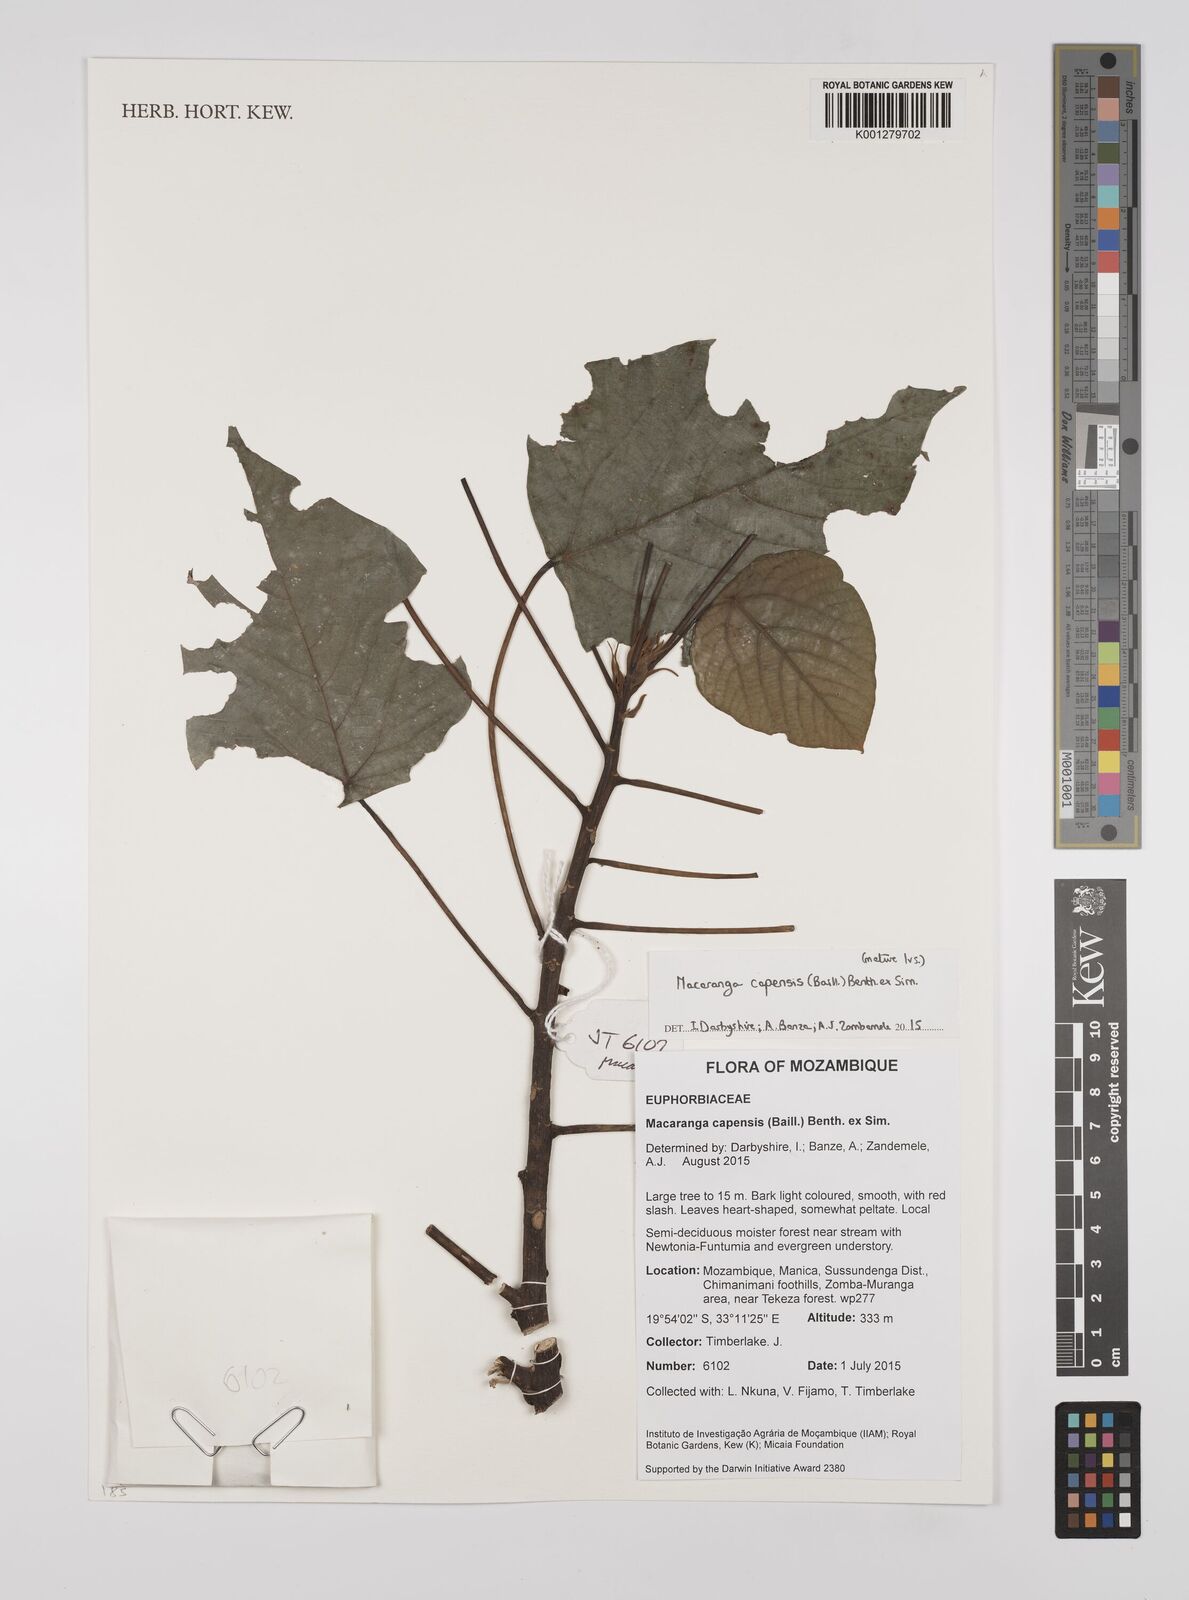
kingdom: Plantae
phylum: Tracheophyta
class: Magnoliopsida
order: Malpighiales
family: Euphorbiaceae
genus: Macaranga
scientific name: Macaranga capensis
